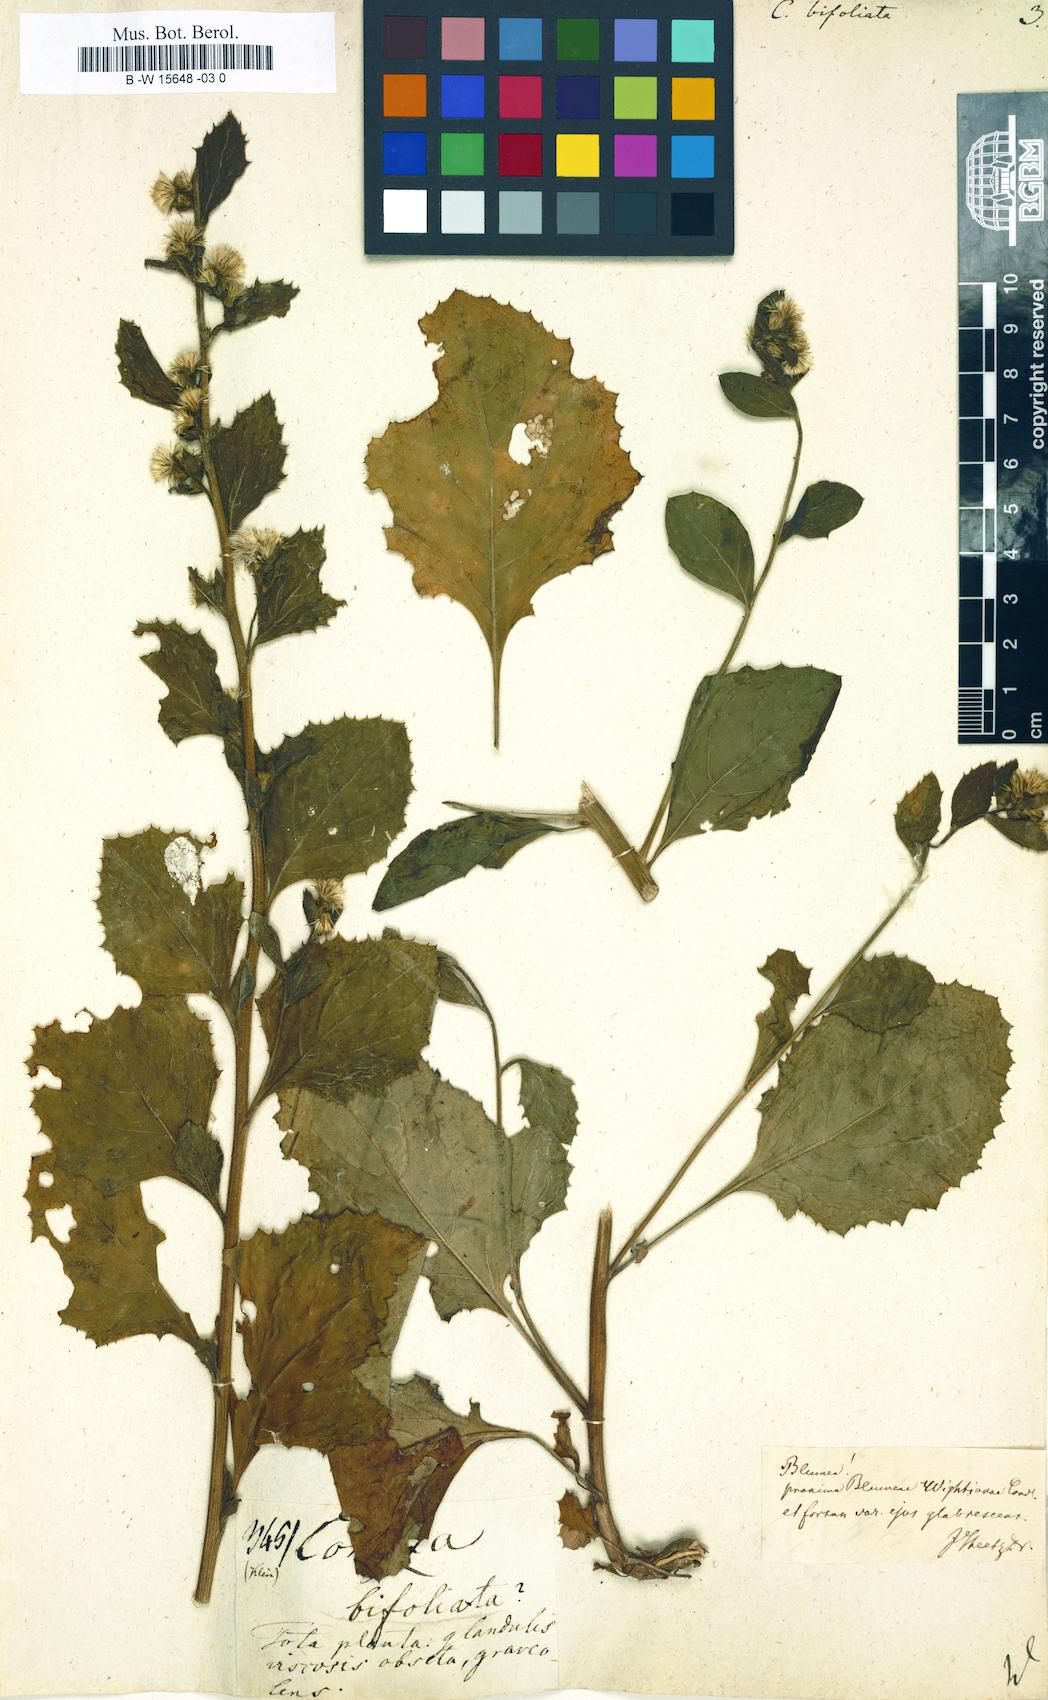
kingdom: Plantae
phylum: Tracheophyta
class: Magnoliopsida
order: Asterales
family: Asteraceae
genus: Blumea
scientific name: Blumea bifoliata
